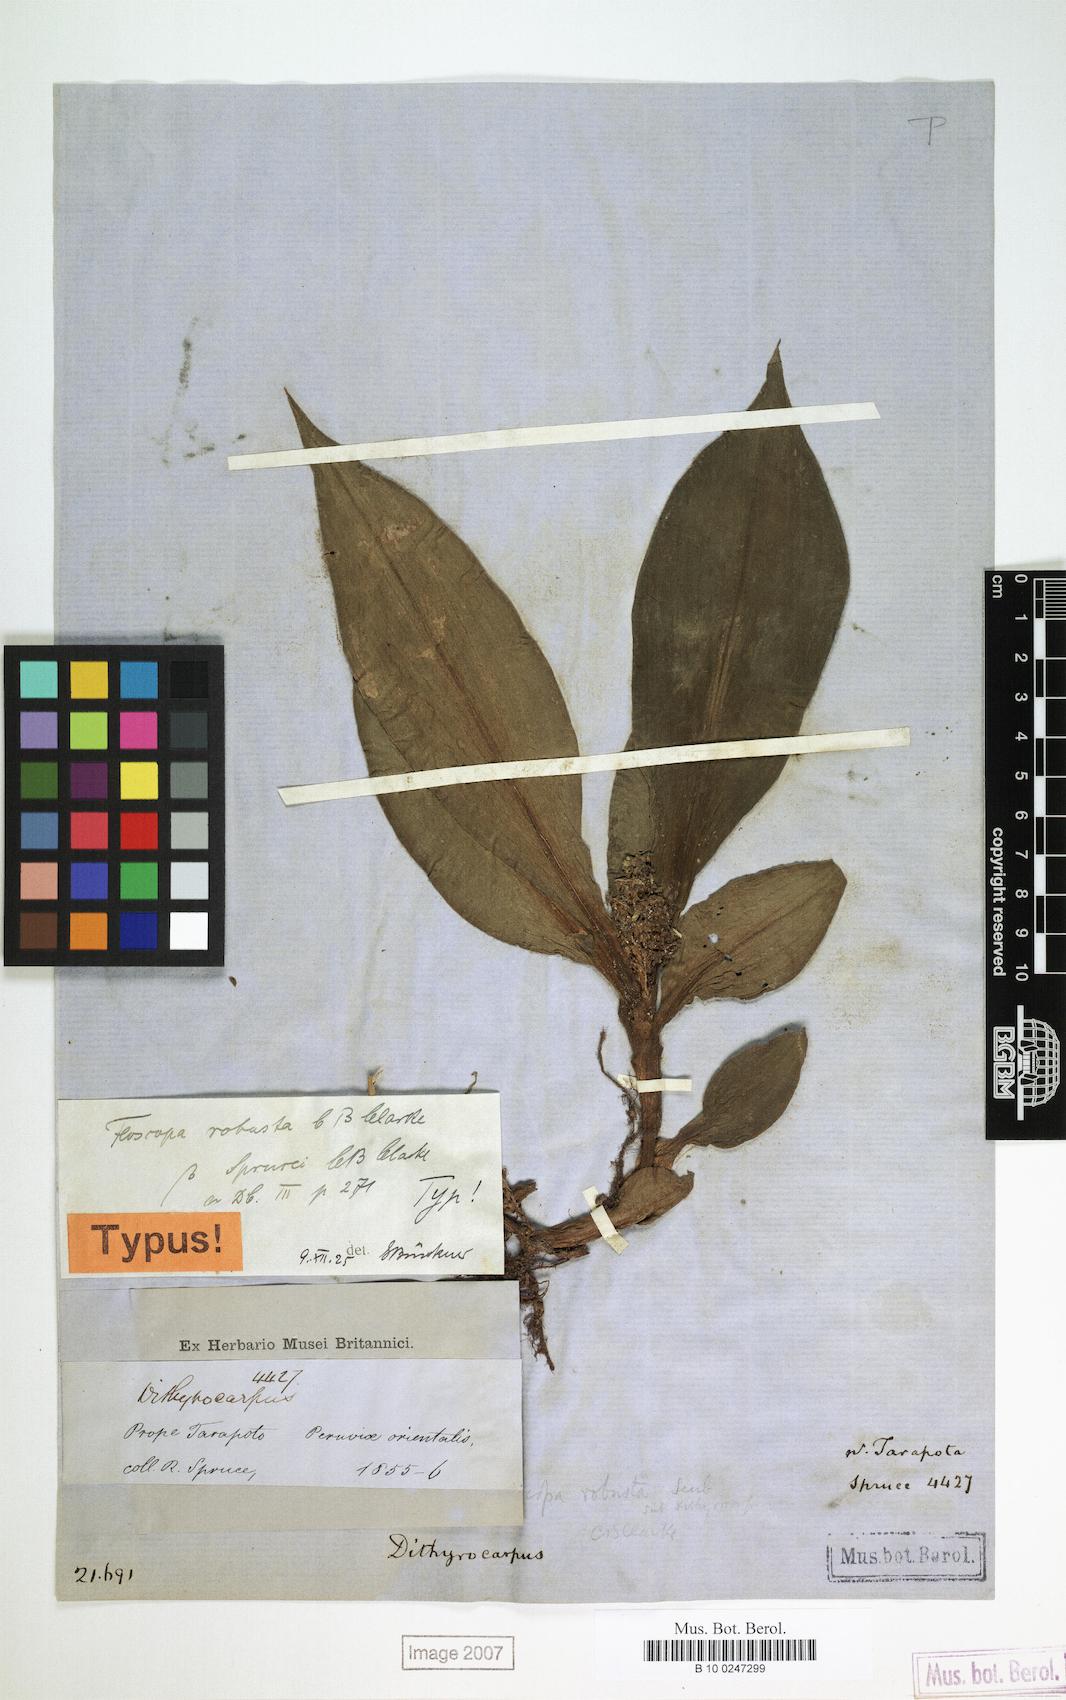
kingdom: Plantae
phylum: Tracheophyta
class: Liliopsida
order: Commelinales
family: Commelinaceae
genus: Floscopa
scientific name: Floscopa robusta
